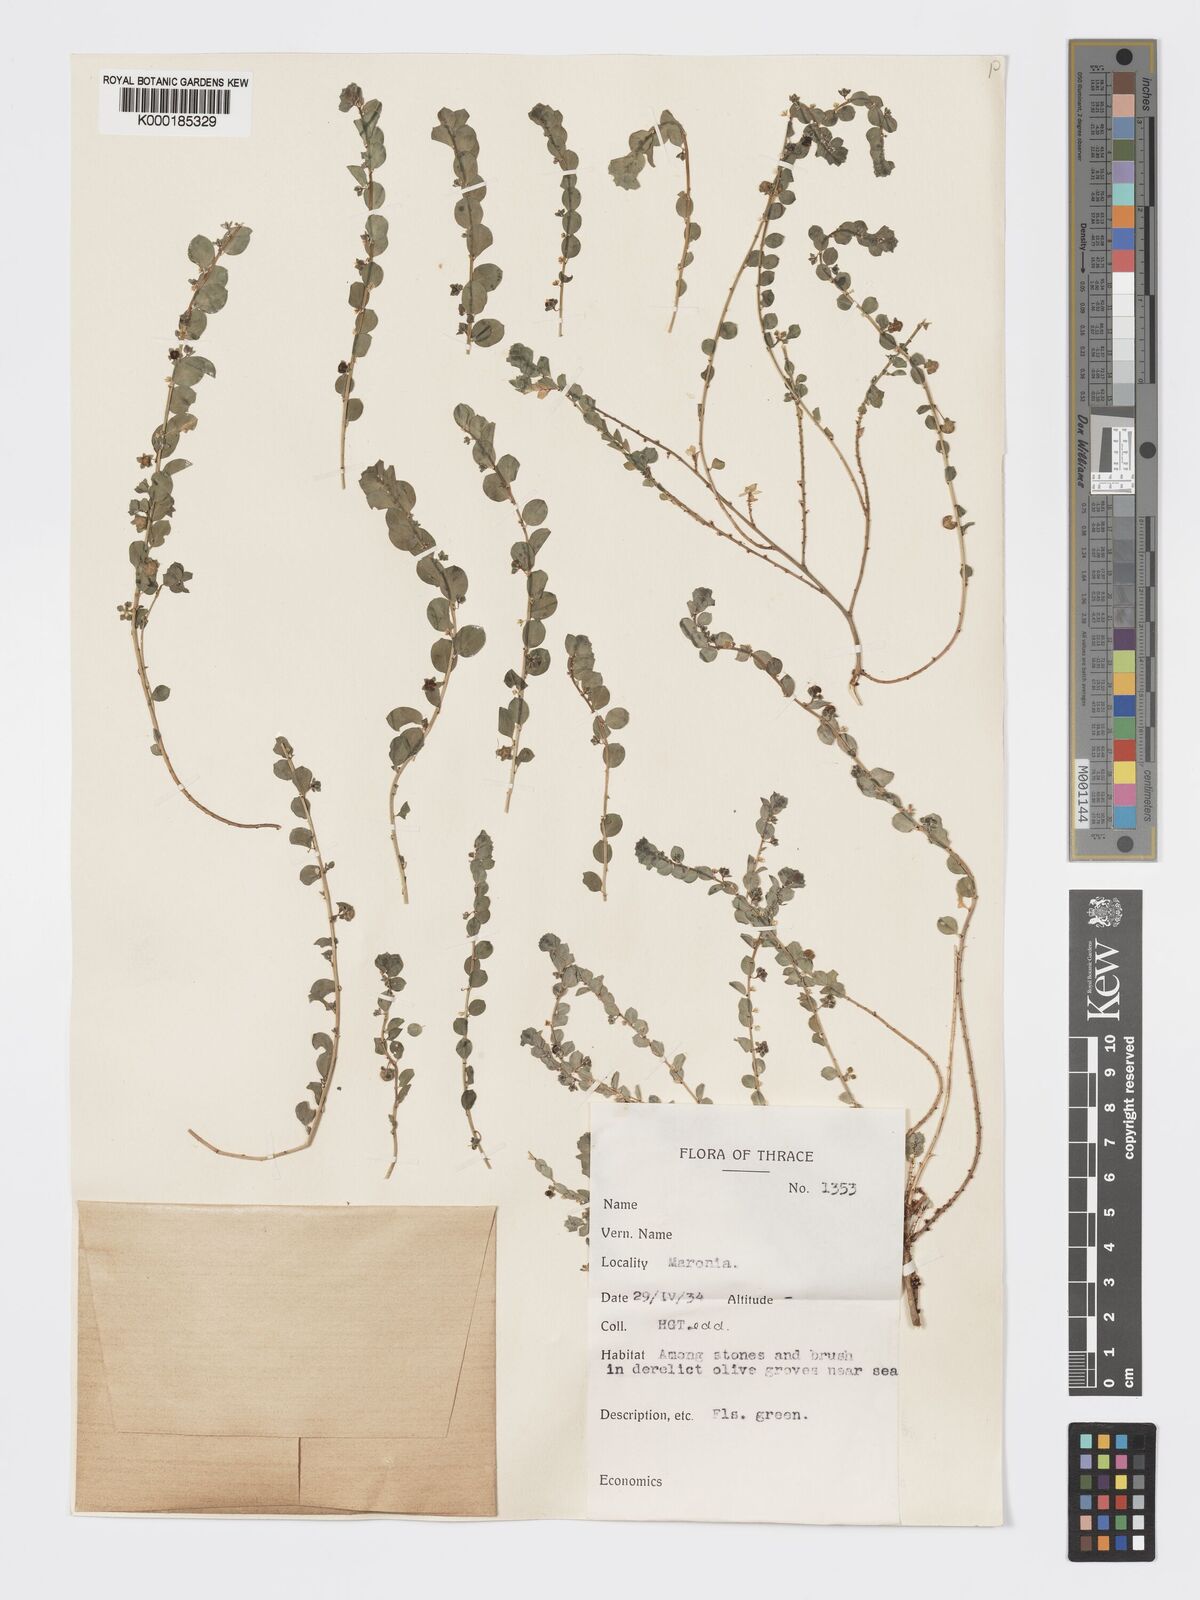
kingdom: Plantae
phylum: Tracheophyta
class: Magnoliopsida
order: Malpighiales
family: Phyllanthaceae
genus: Andrachne
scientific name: Andrachne telephioides
